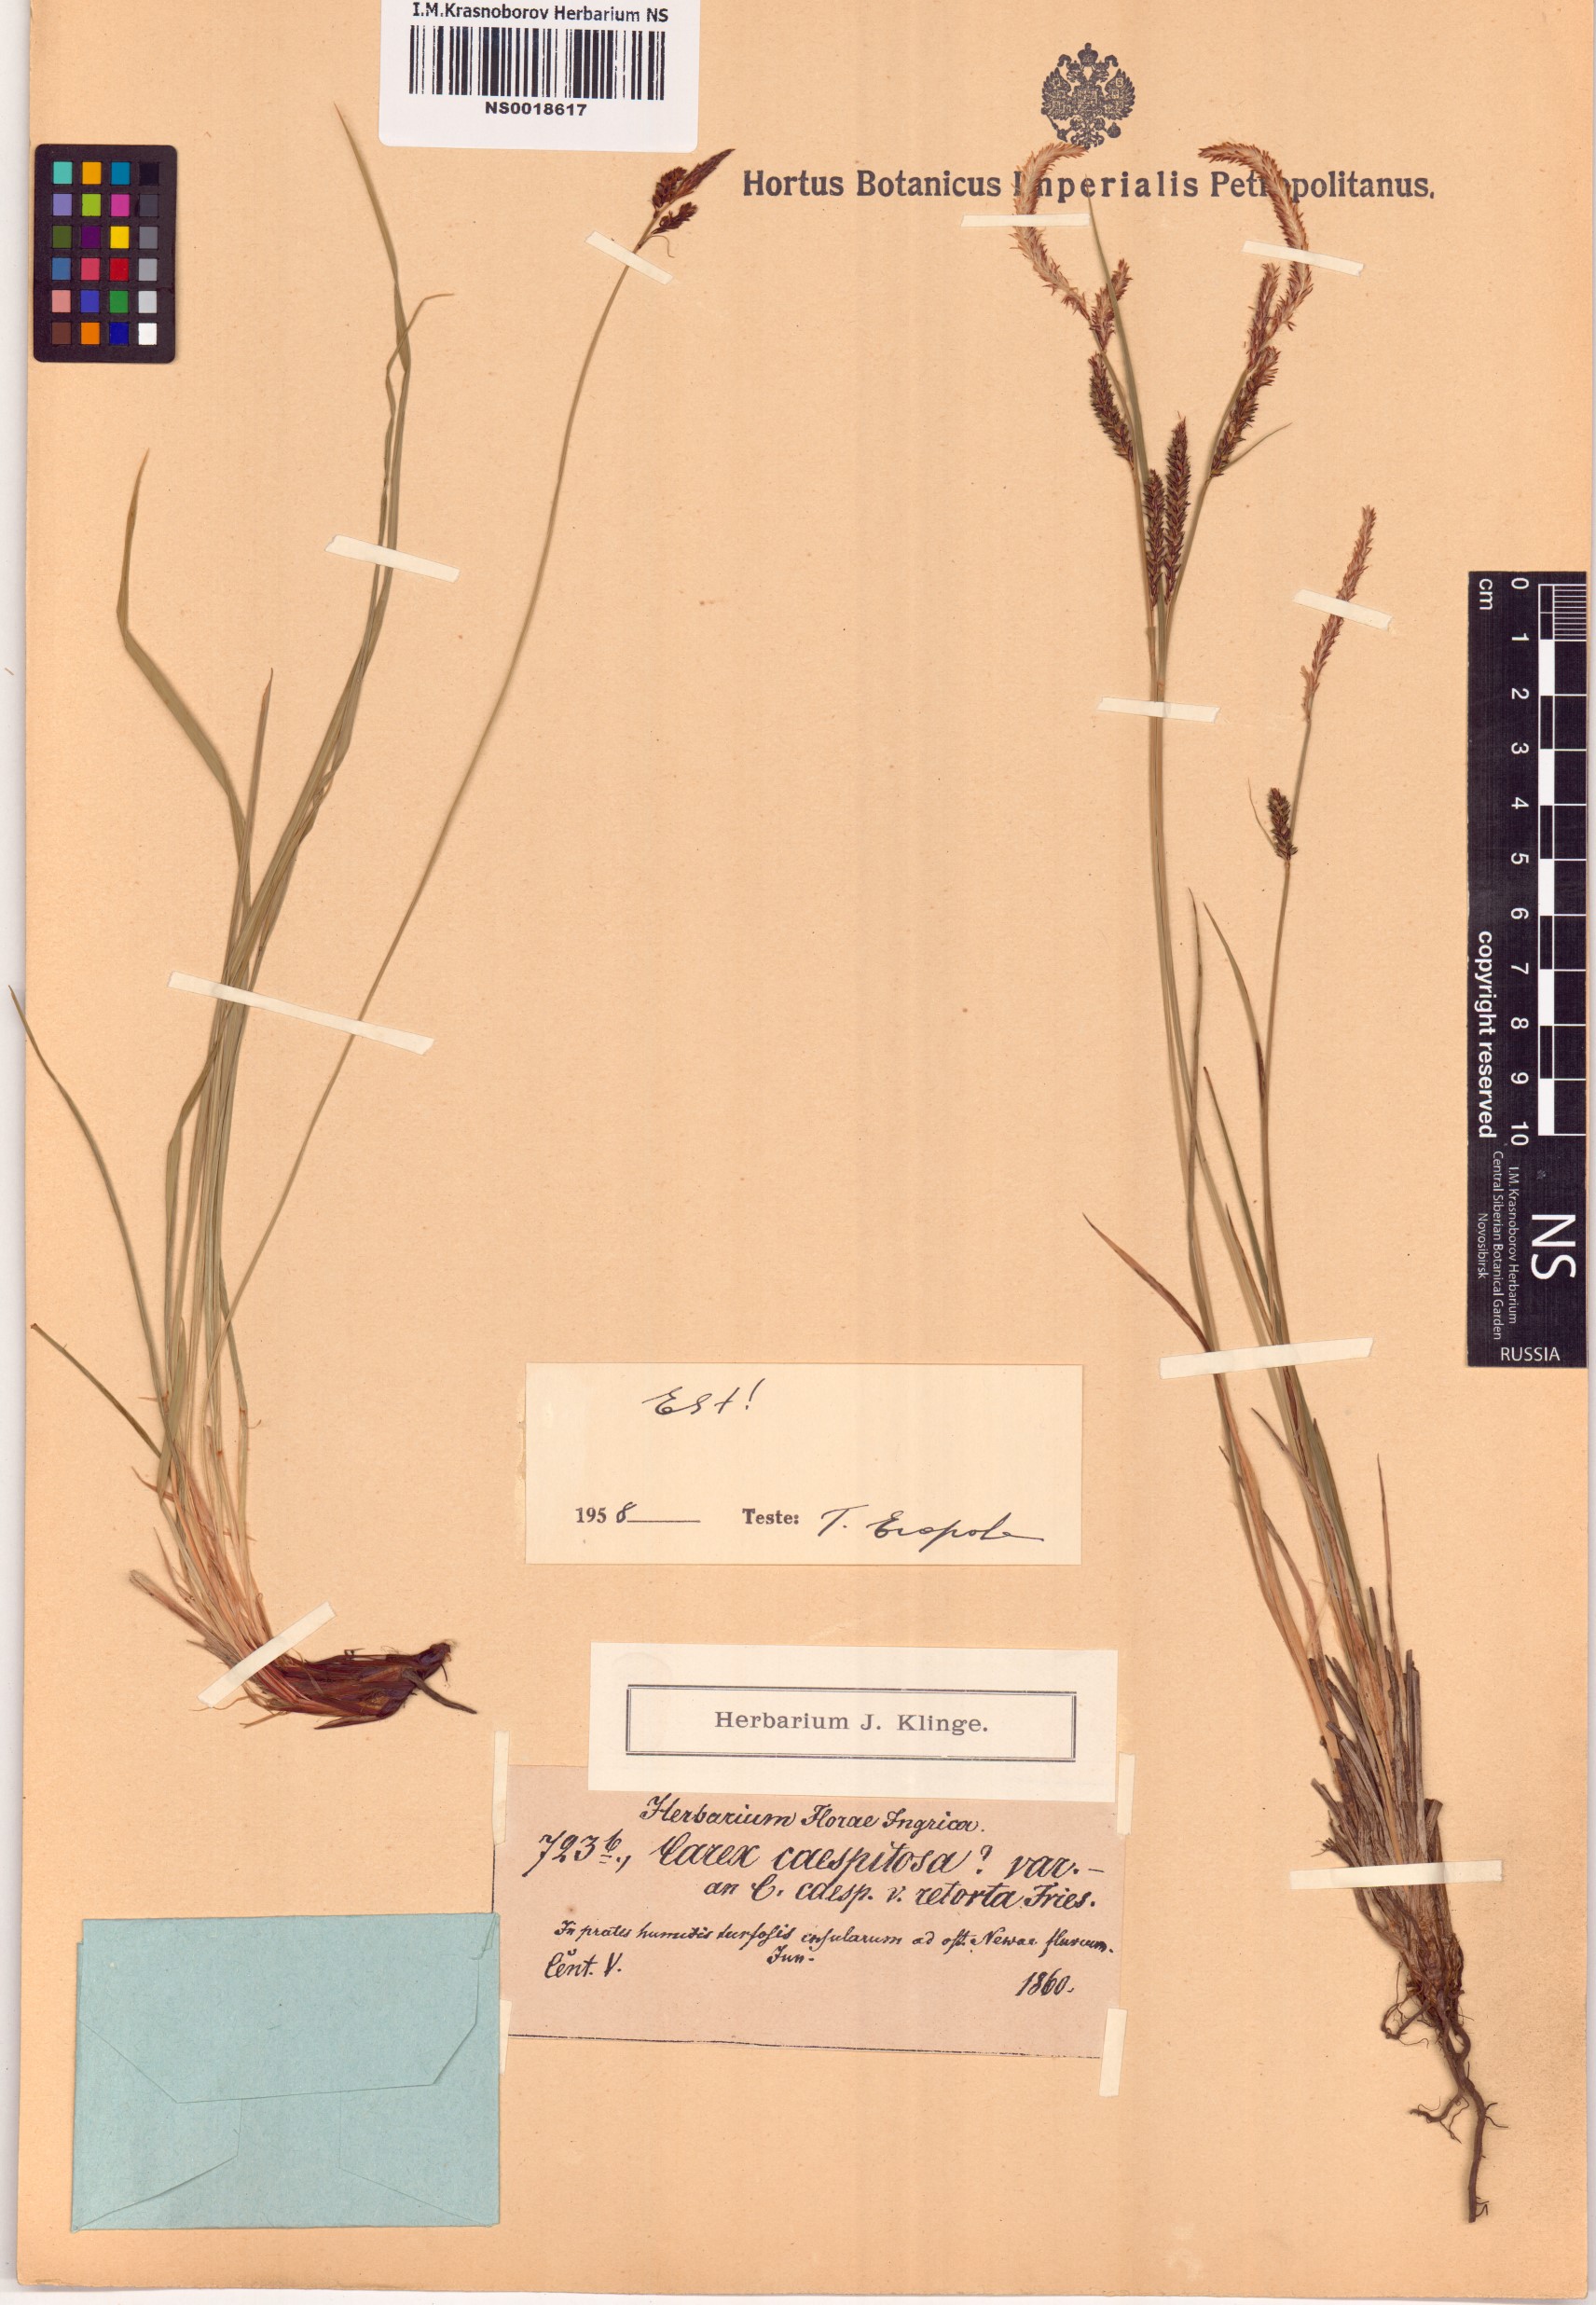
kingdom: Plantae
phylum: Tracheophyta
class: Liliopsida
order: Poales
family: Cyperaceae
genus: Carex
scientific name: Carex cespitosa
